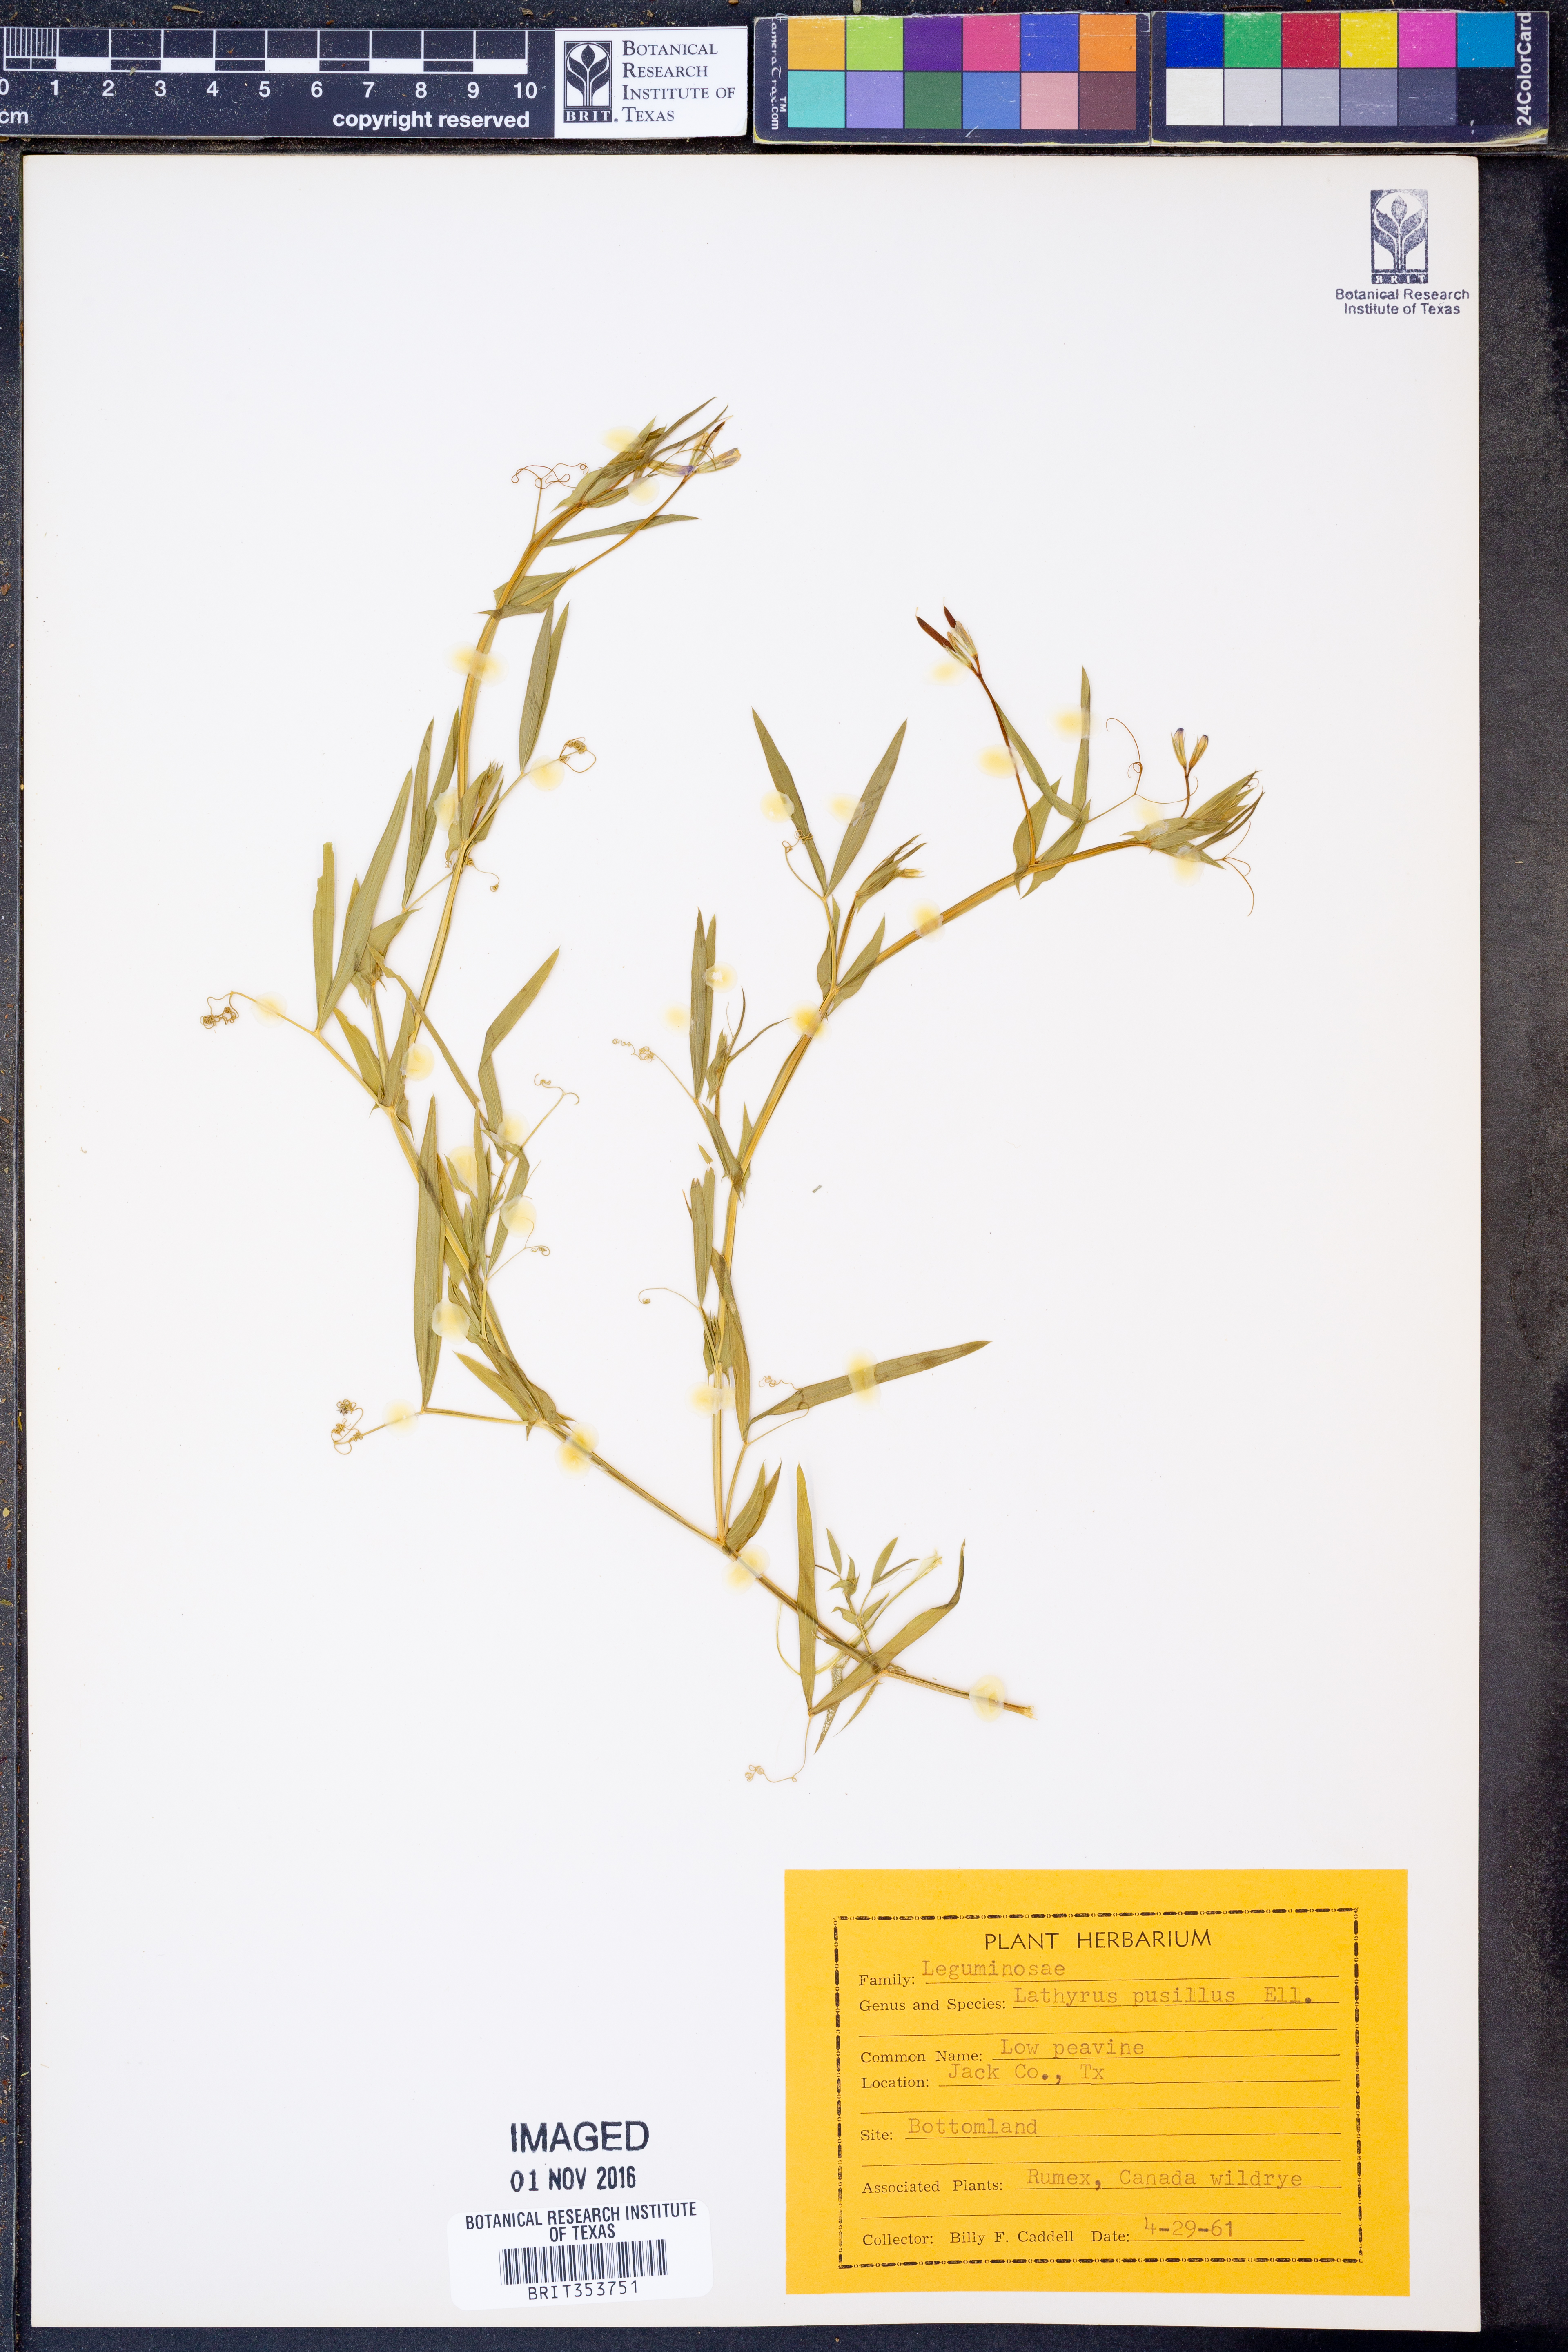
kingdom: Plantae
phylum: Tracheophyta
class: Magnoliopsida
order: Fabales
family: Fabaceae
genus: Lathyrus
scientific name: Lathyrus pusillus
